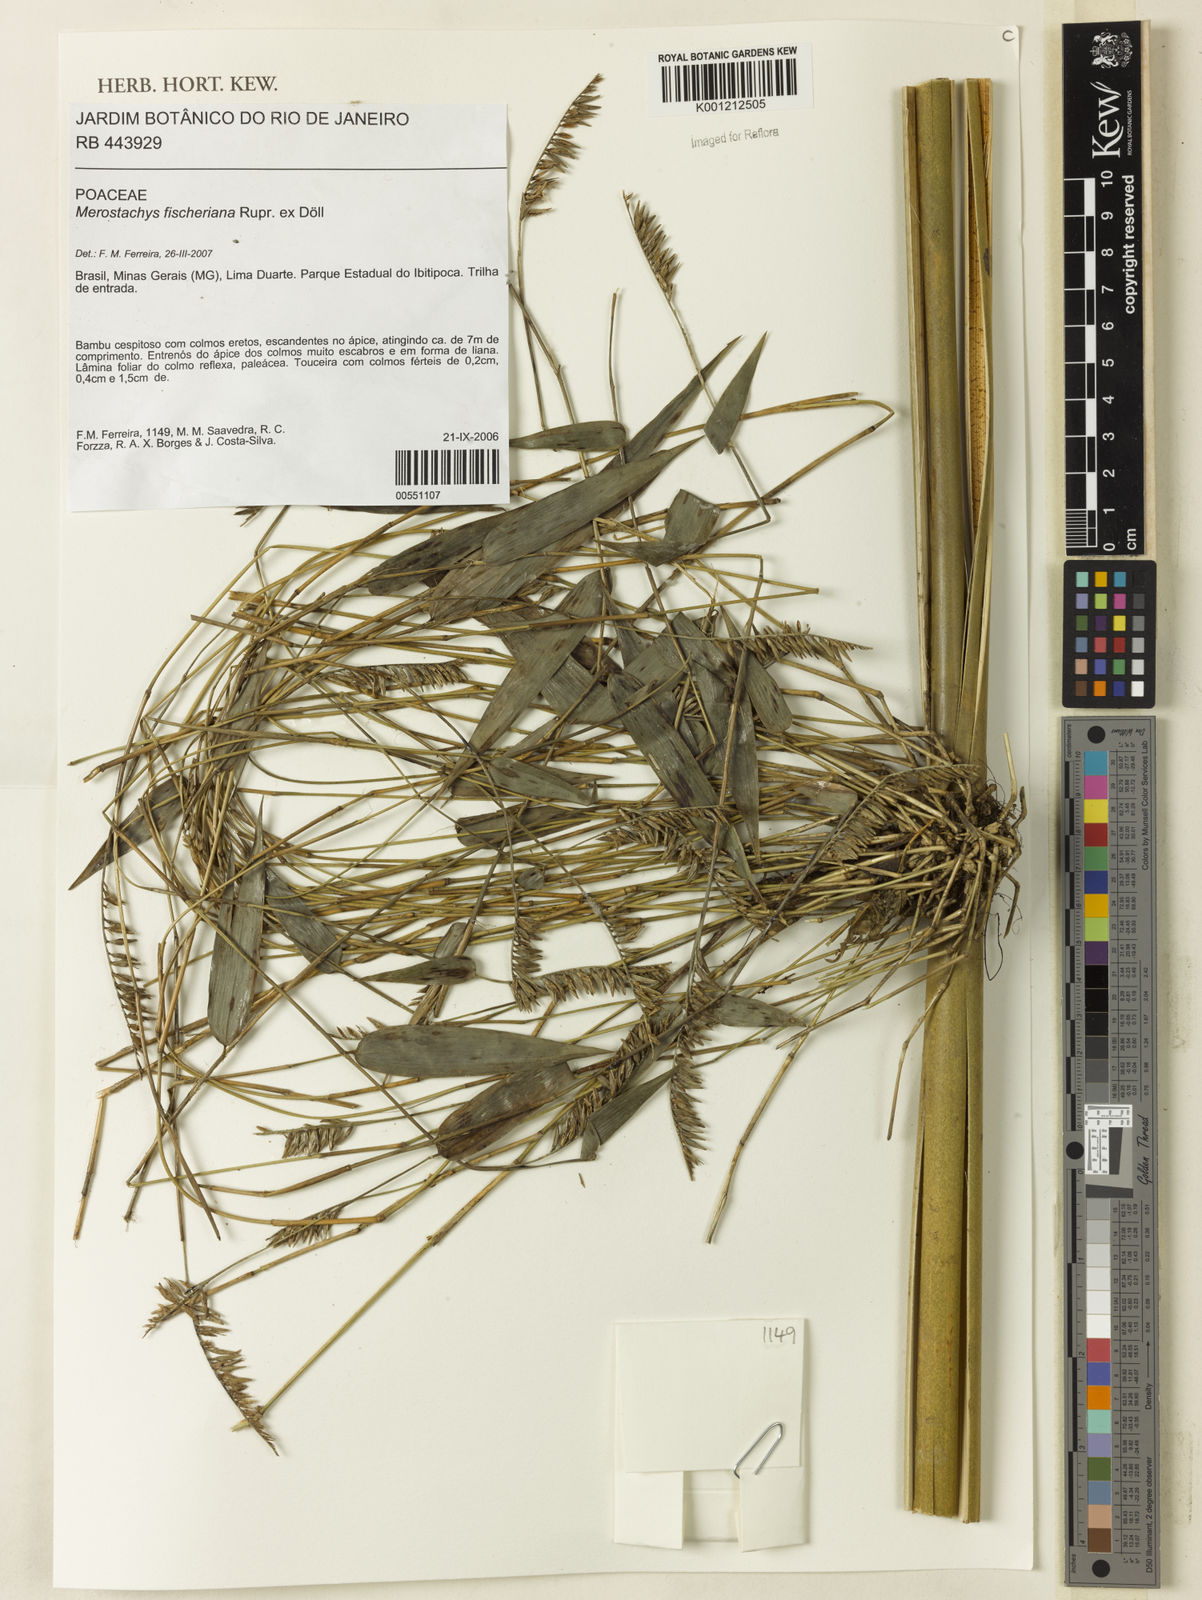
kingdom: Plantae
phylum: Tracheophyta
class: Liliopsida
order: Poales
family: Poaceae
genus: Merostachys
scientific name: Merostachys
